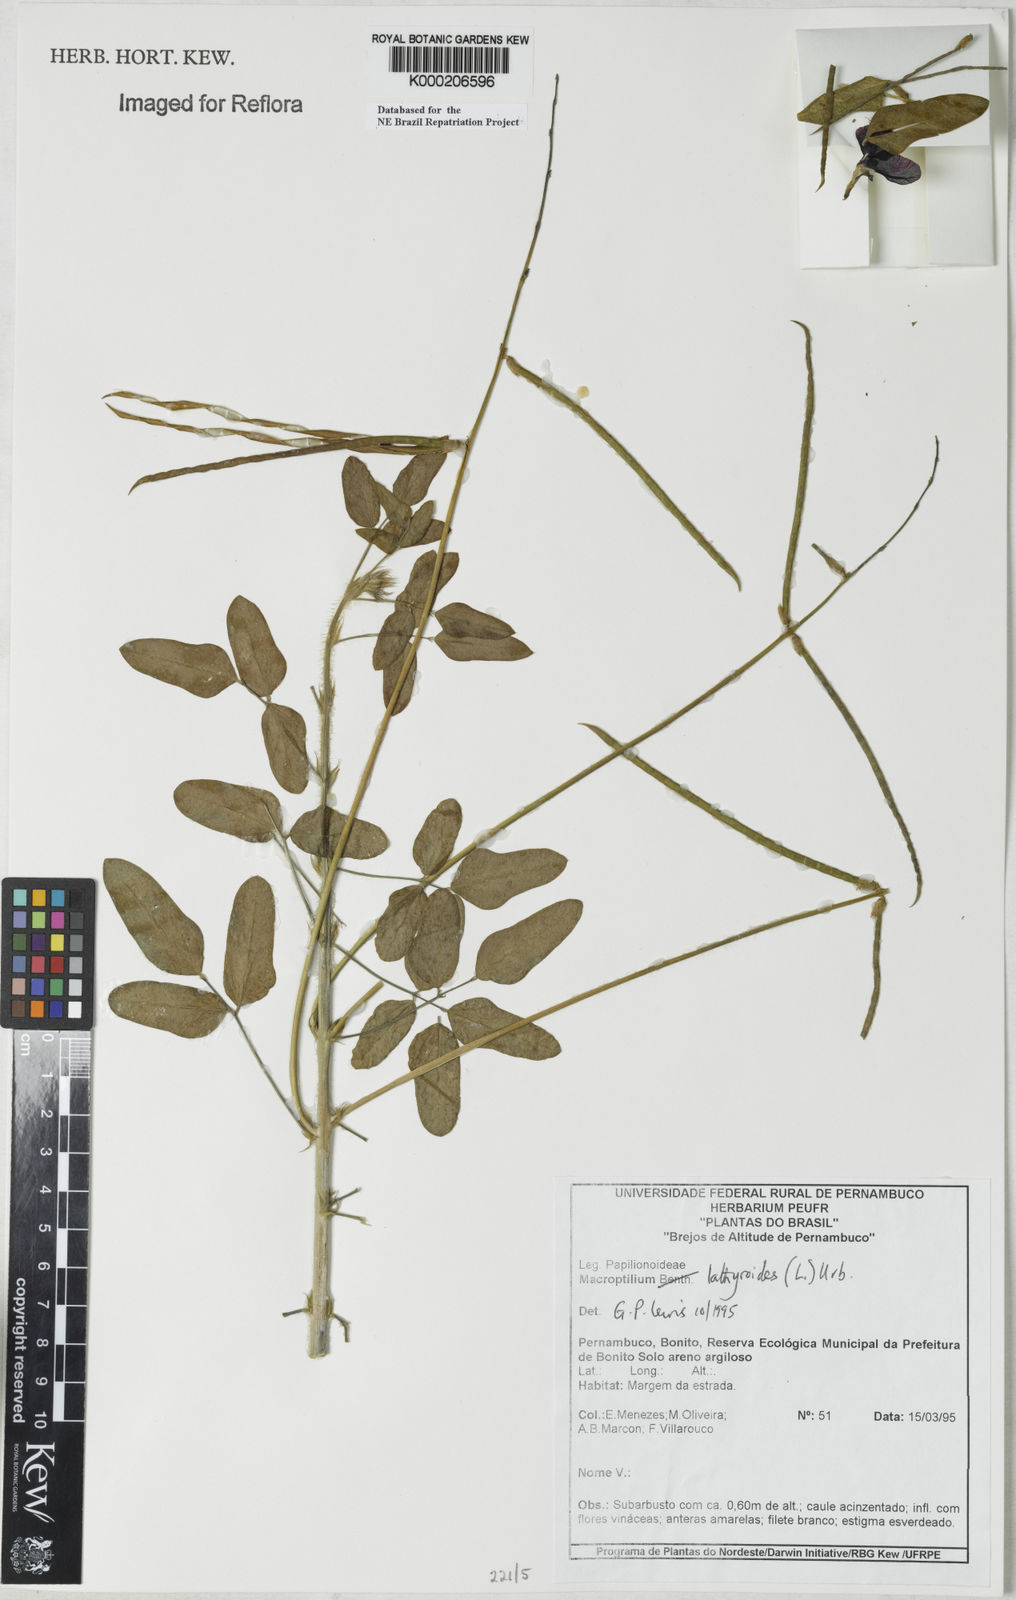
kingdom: Plantae
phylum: Tracheophyta
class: Magnoliopsida
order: Fabales
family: Fabaceae
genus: Macroptilium
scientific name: Macroptilium lathyroides
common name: Wild bushbean
